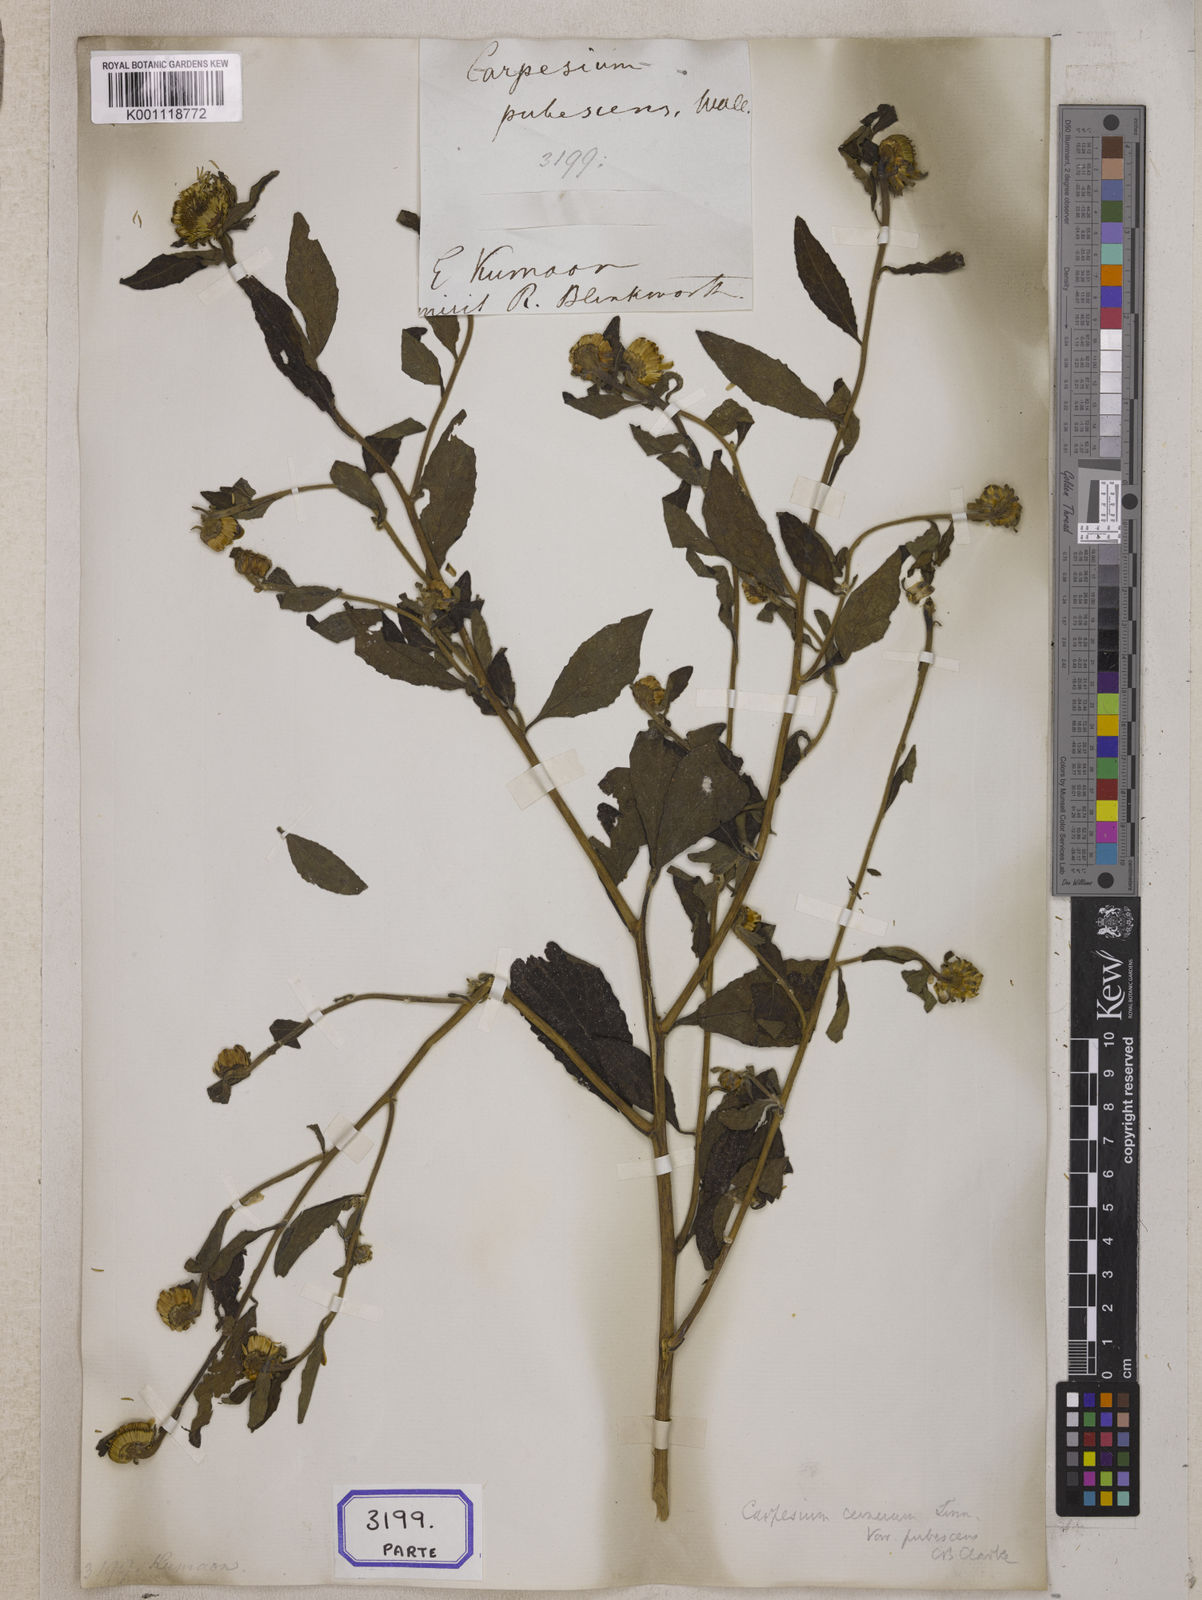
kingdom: Plantae
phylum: Tracheophyta
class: Magnoliopsida
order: Asterales
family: Asteraceae
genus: Carpesium
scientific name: Carpesium cernuum
